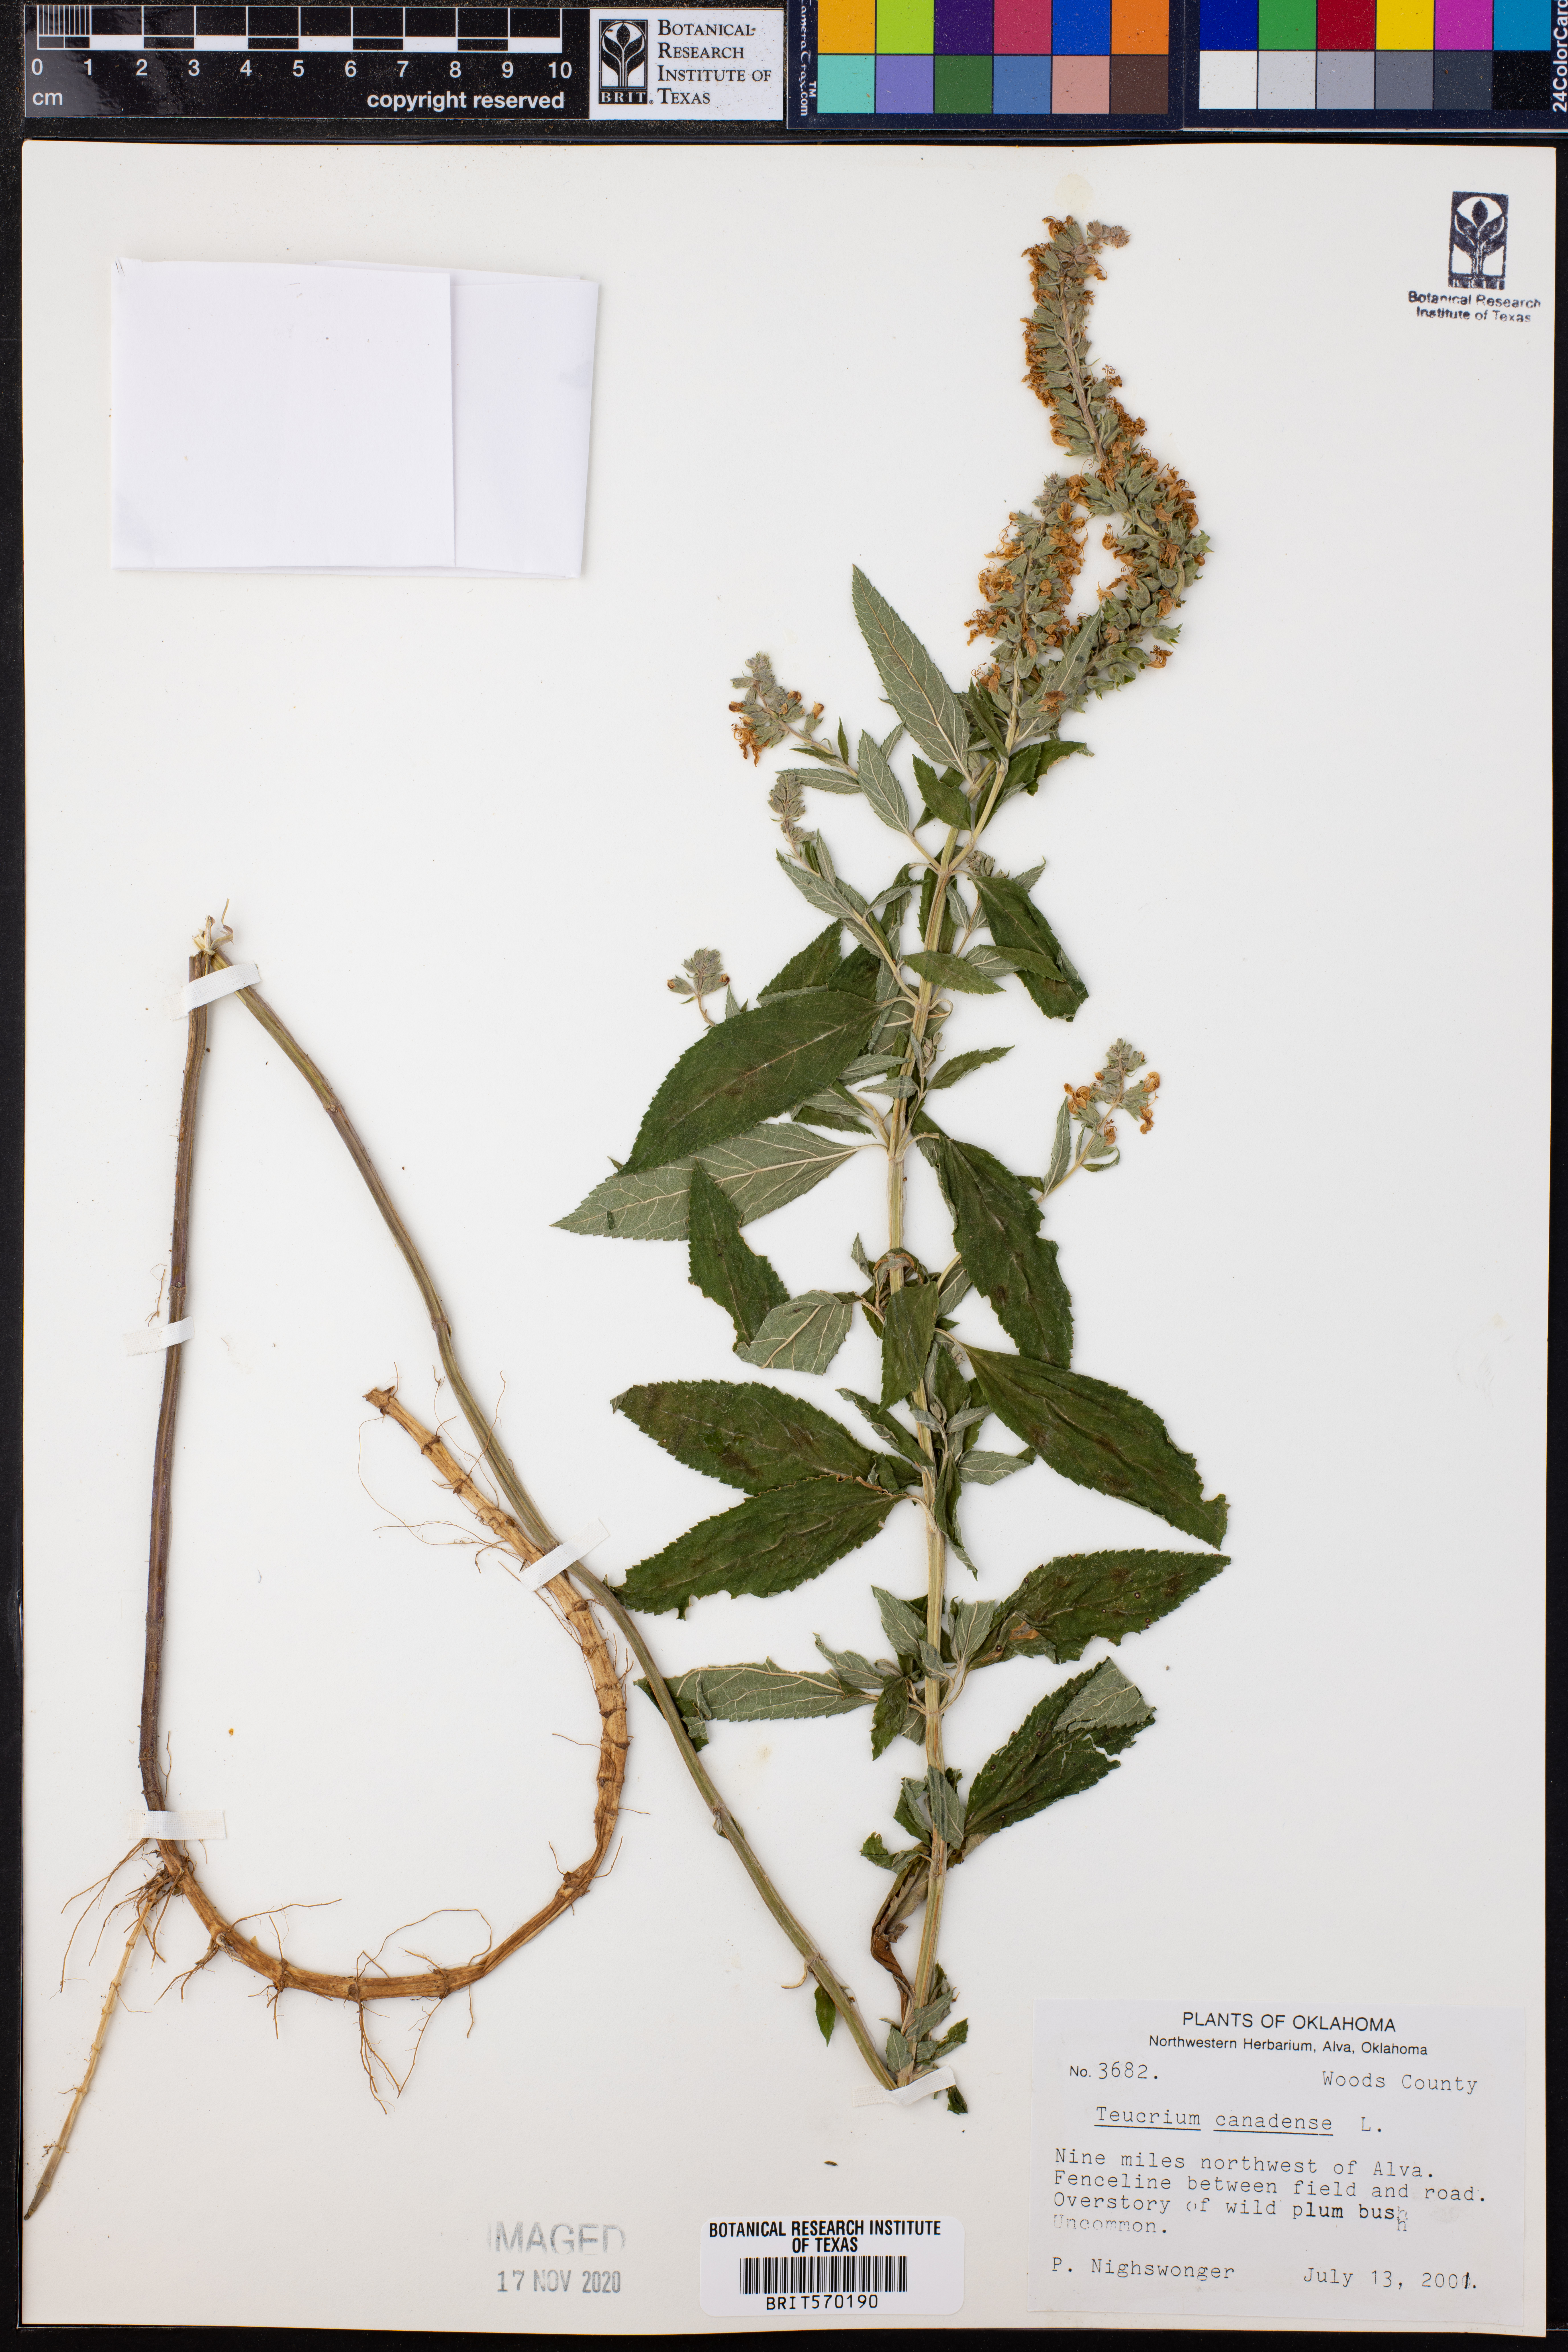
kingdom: Plantae
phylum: Tracheophyta
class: Magnoliopsida
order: Lamiales
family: Lamiaceae
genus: Teucrium
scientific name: Teucrium canadense
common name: American germander
